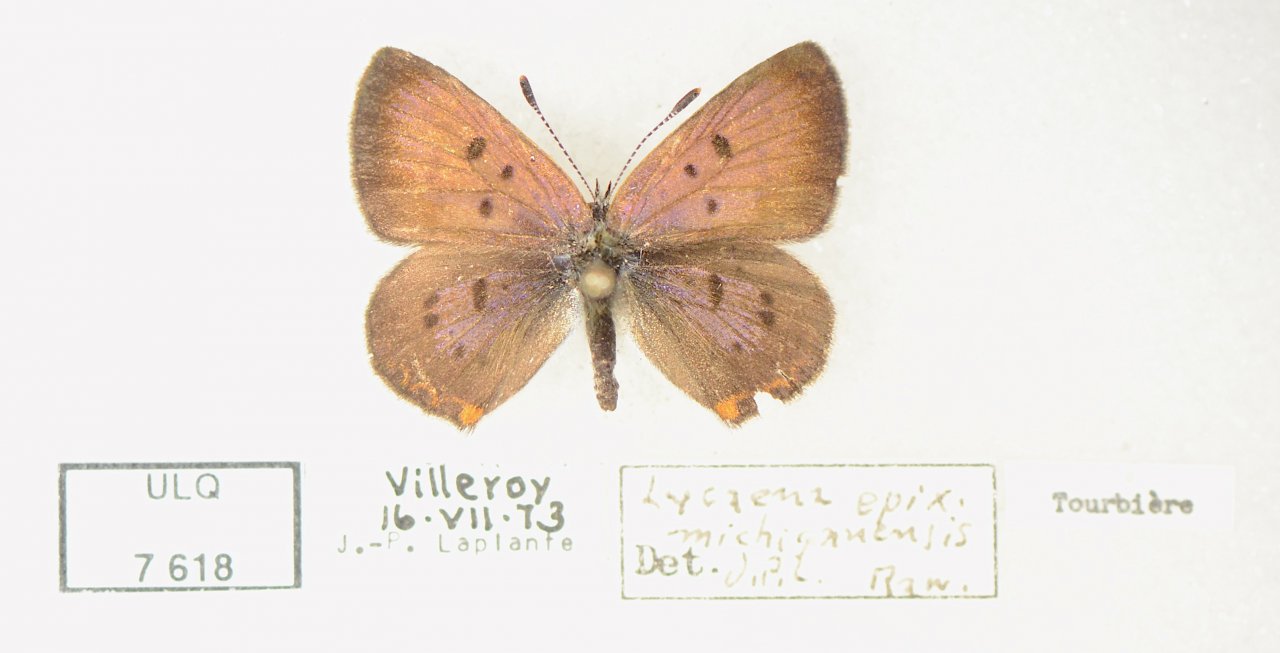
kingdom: Animalia
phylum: Arthropoda
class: Insecta
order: Lepidoptera
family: Sesiidae
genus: Sesia
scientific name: Sesia Lycaena epixanthe
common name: Bog Copper
